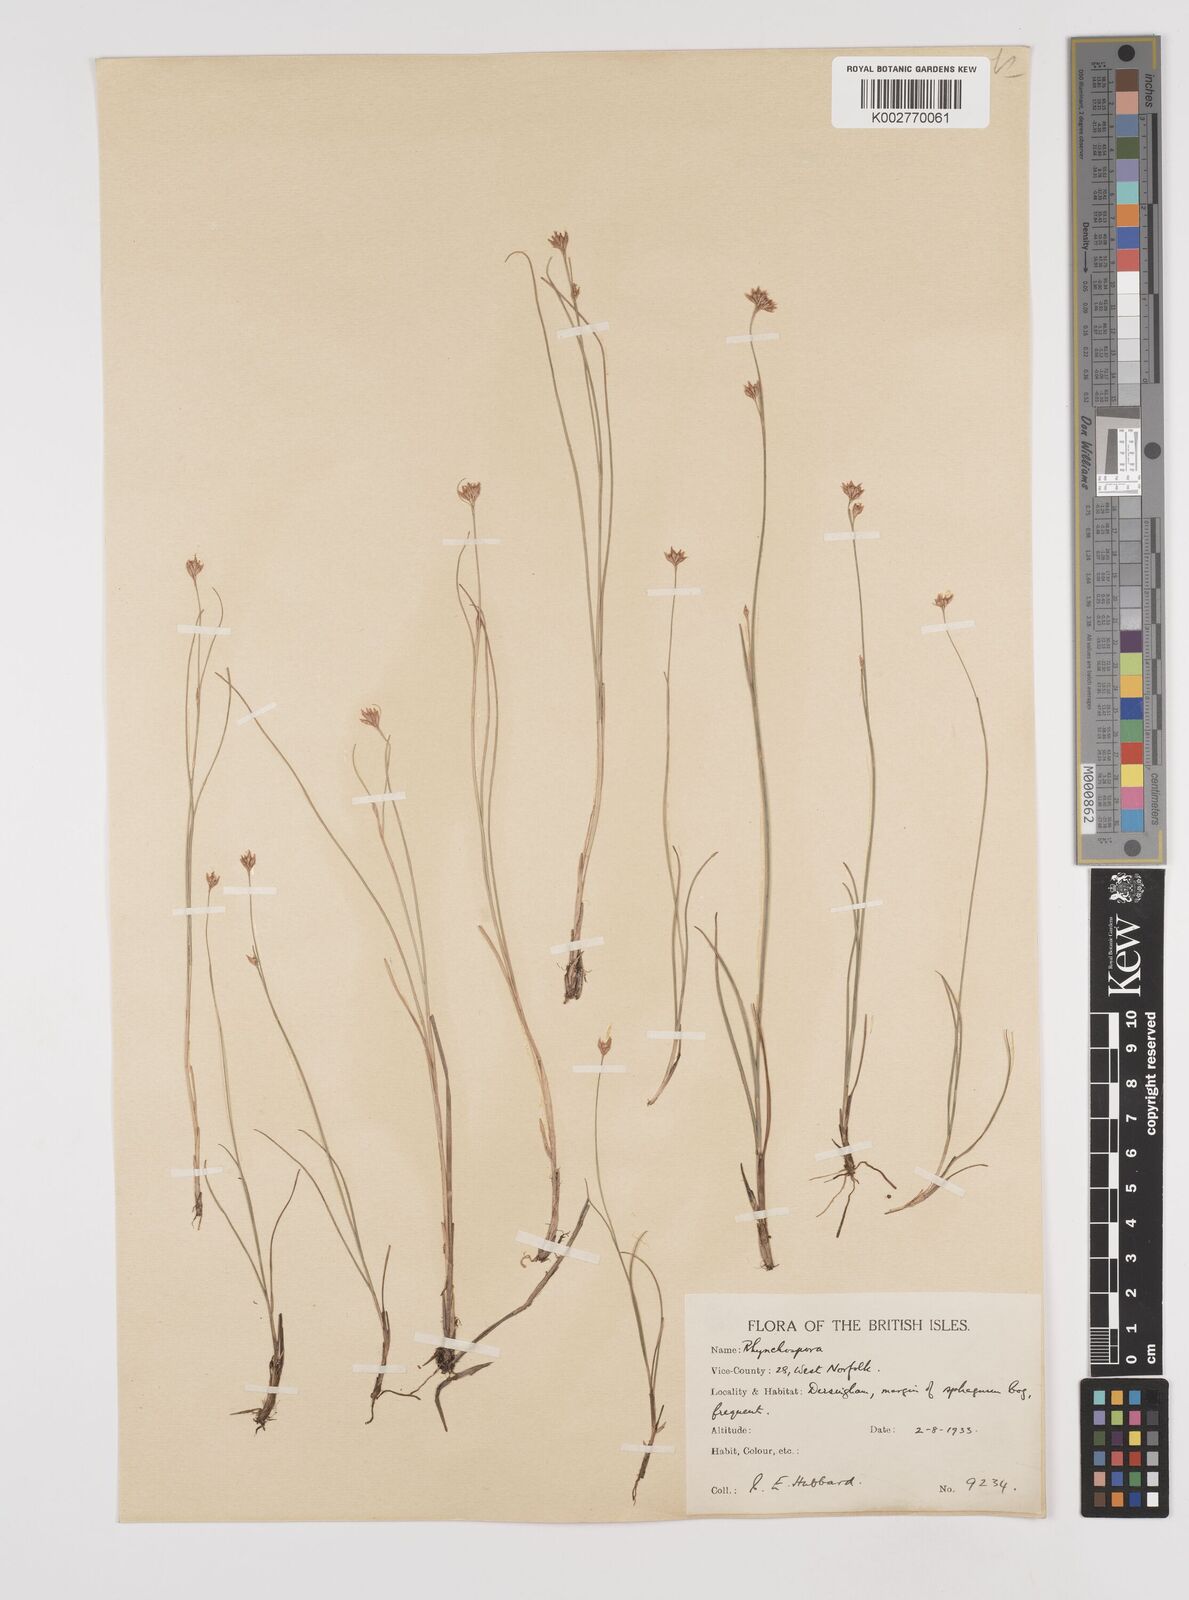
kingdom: Plantae
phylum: Tracheophyta
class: Liliopsida
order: Poales
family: Cyperaceae
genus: Rhynchospora
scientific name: Rhynchospora alba
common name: White beak-sedge
